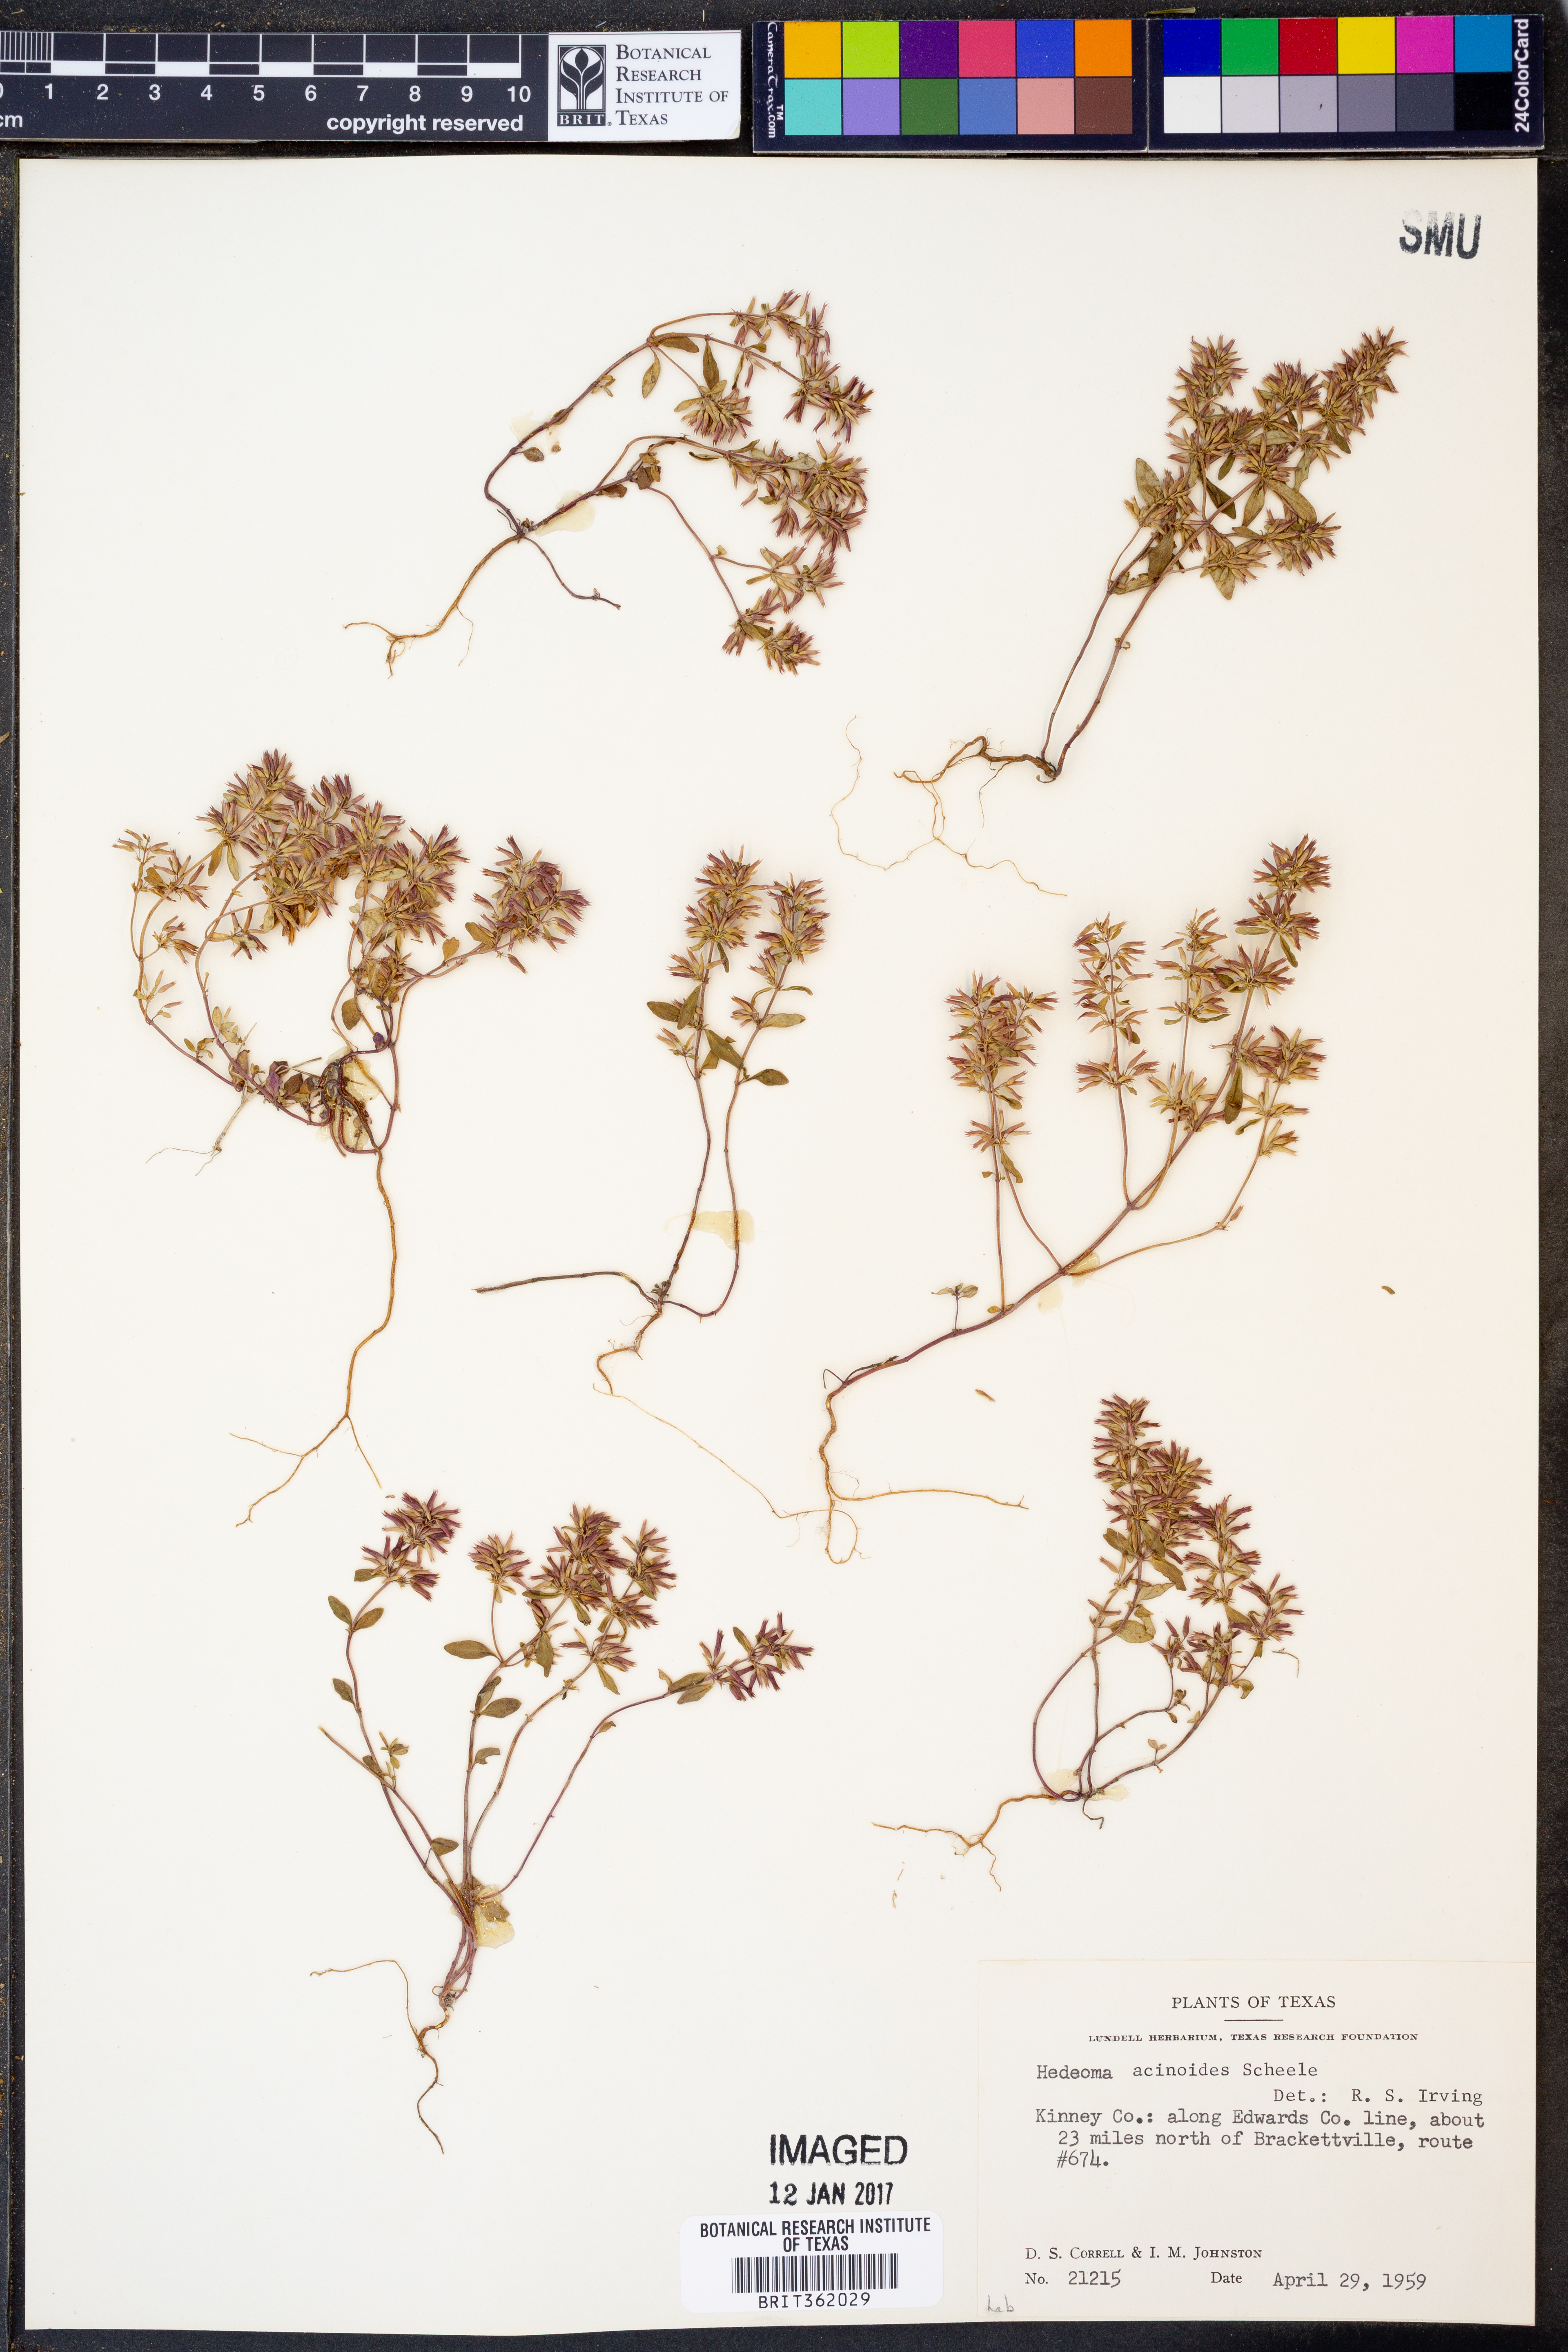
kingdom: Plantae
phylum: Tracheophyta
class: Magnoliopsida
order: Lamiales
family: Lamiaceae
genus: Hedeoma
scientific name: Hedeoma acinoides
